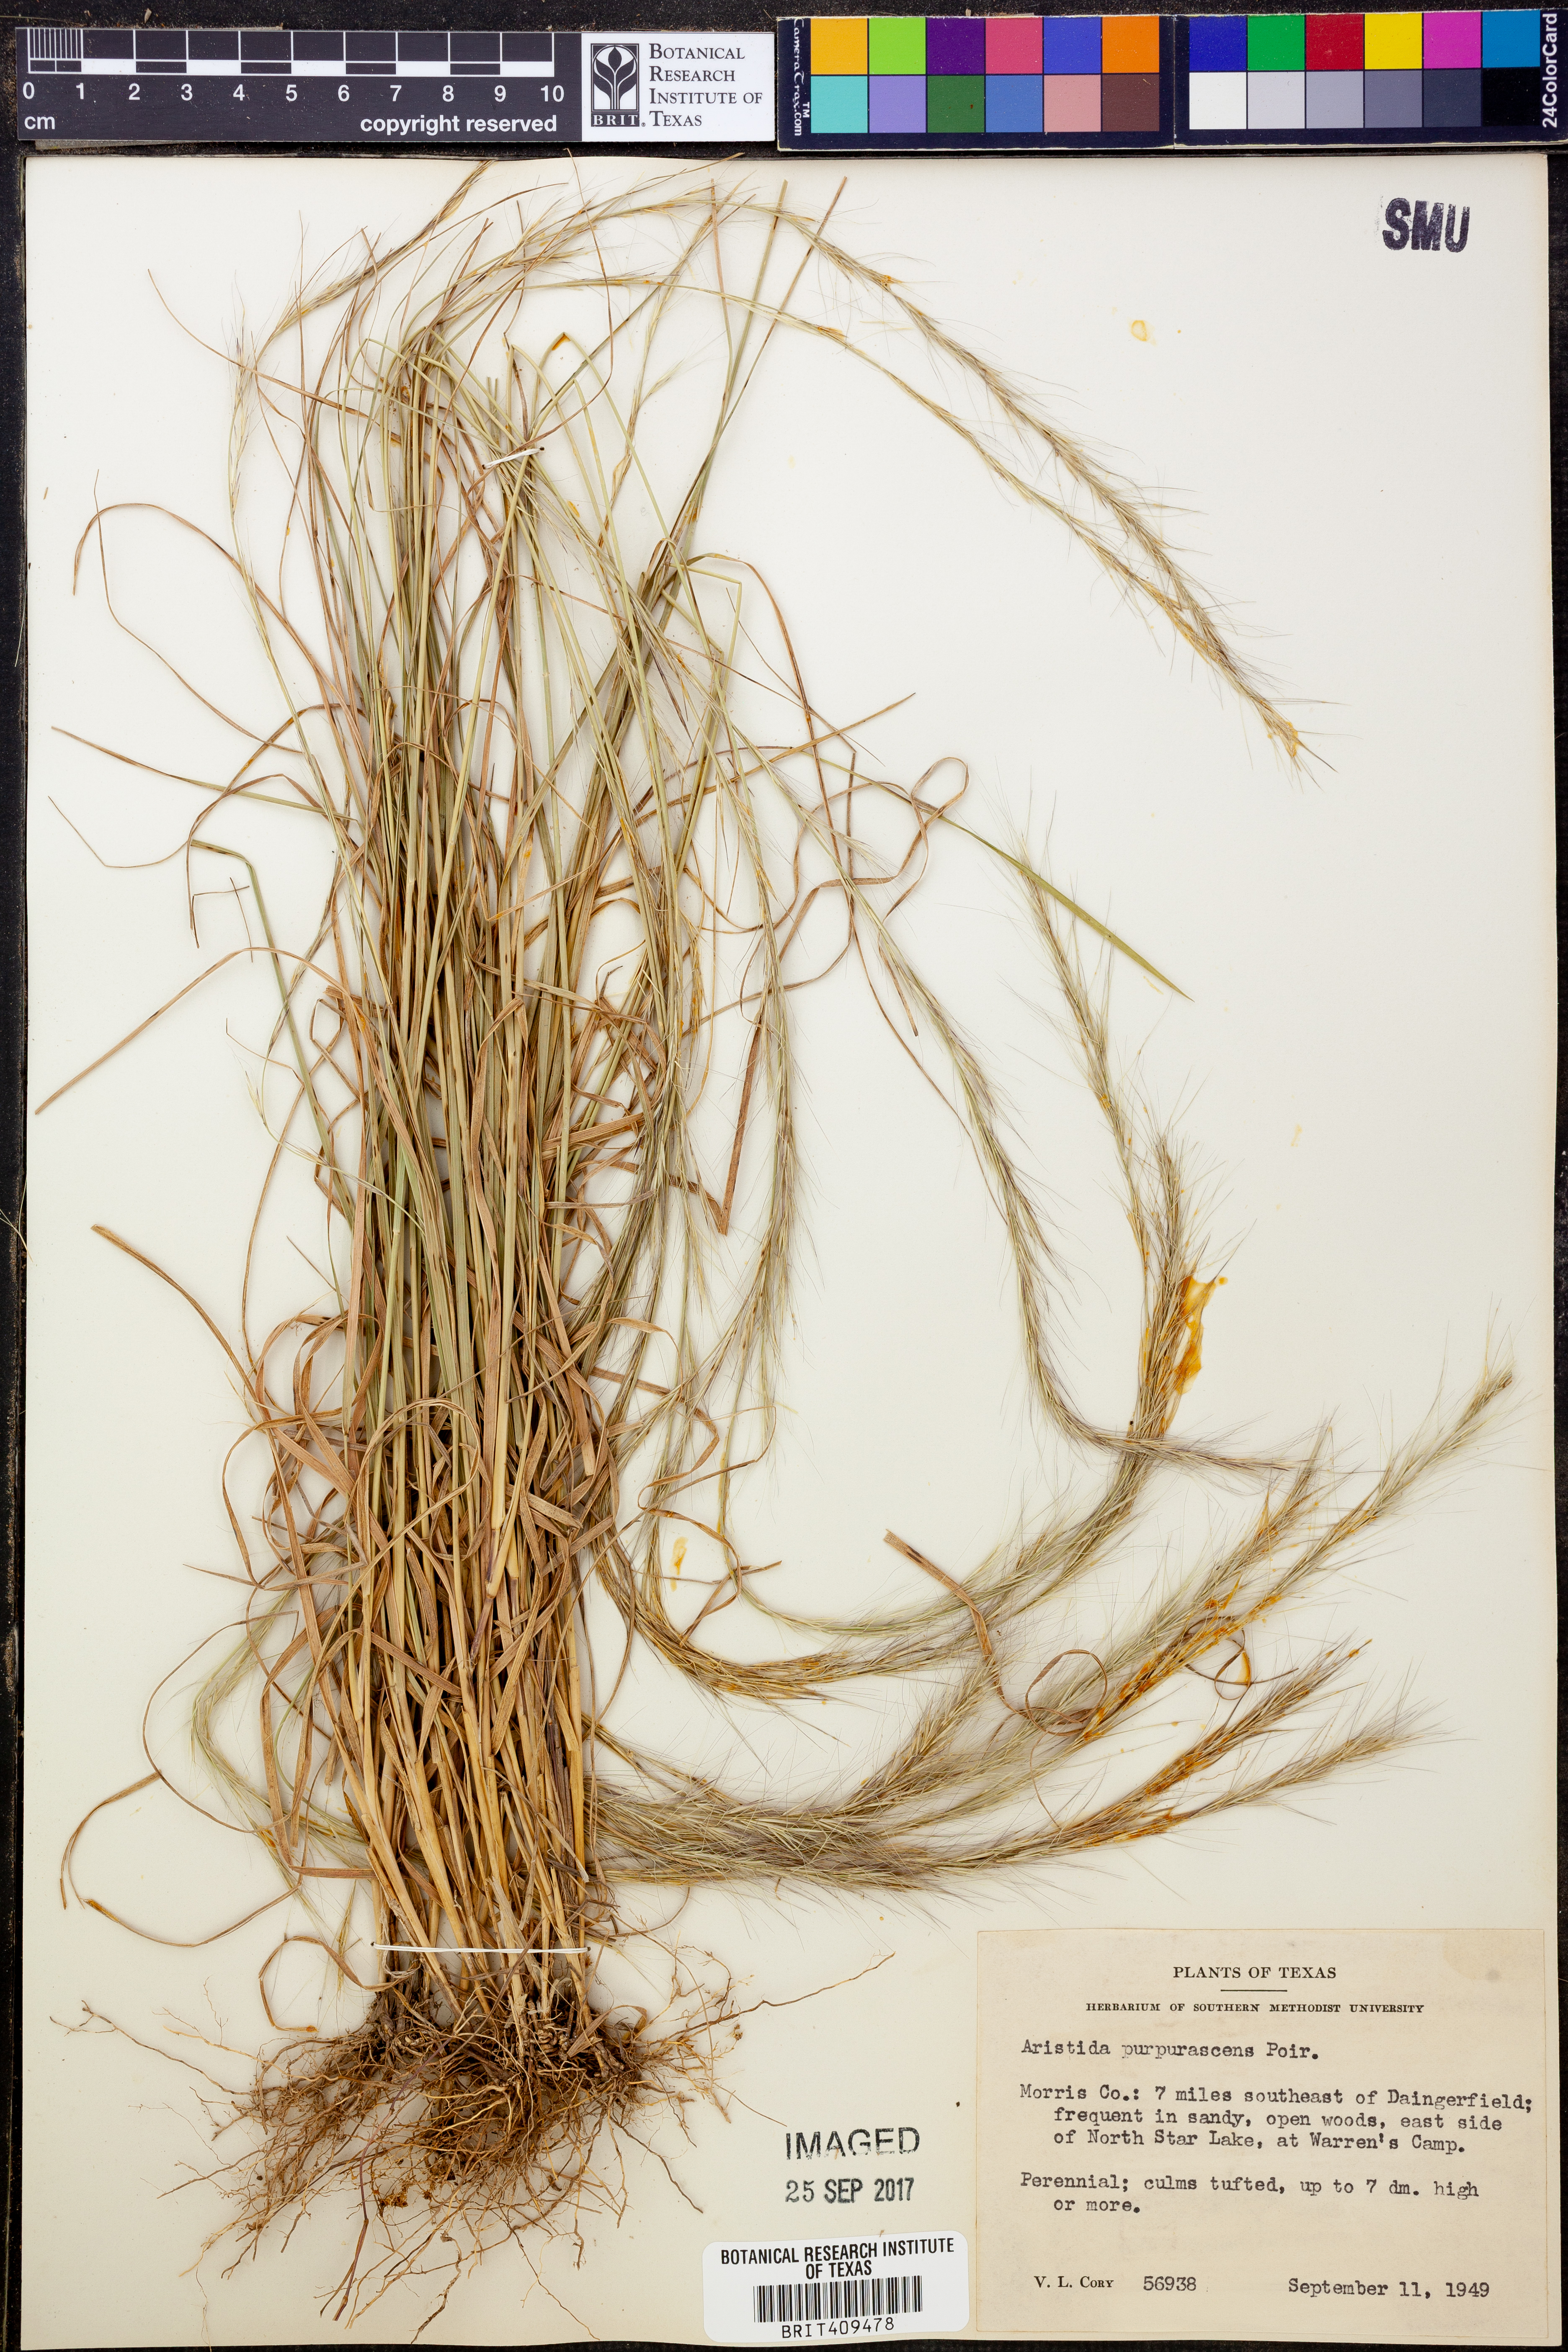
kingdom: Plantae
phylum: Tracheophyta
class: Liliopsida
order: Poales
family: Poaceae
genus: Aristida
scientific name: Aristida purpurascens
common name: Arrow-feather
